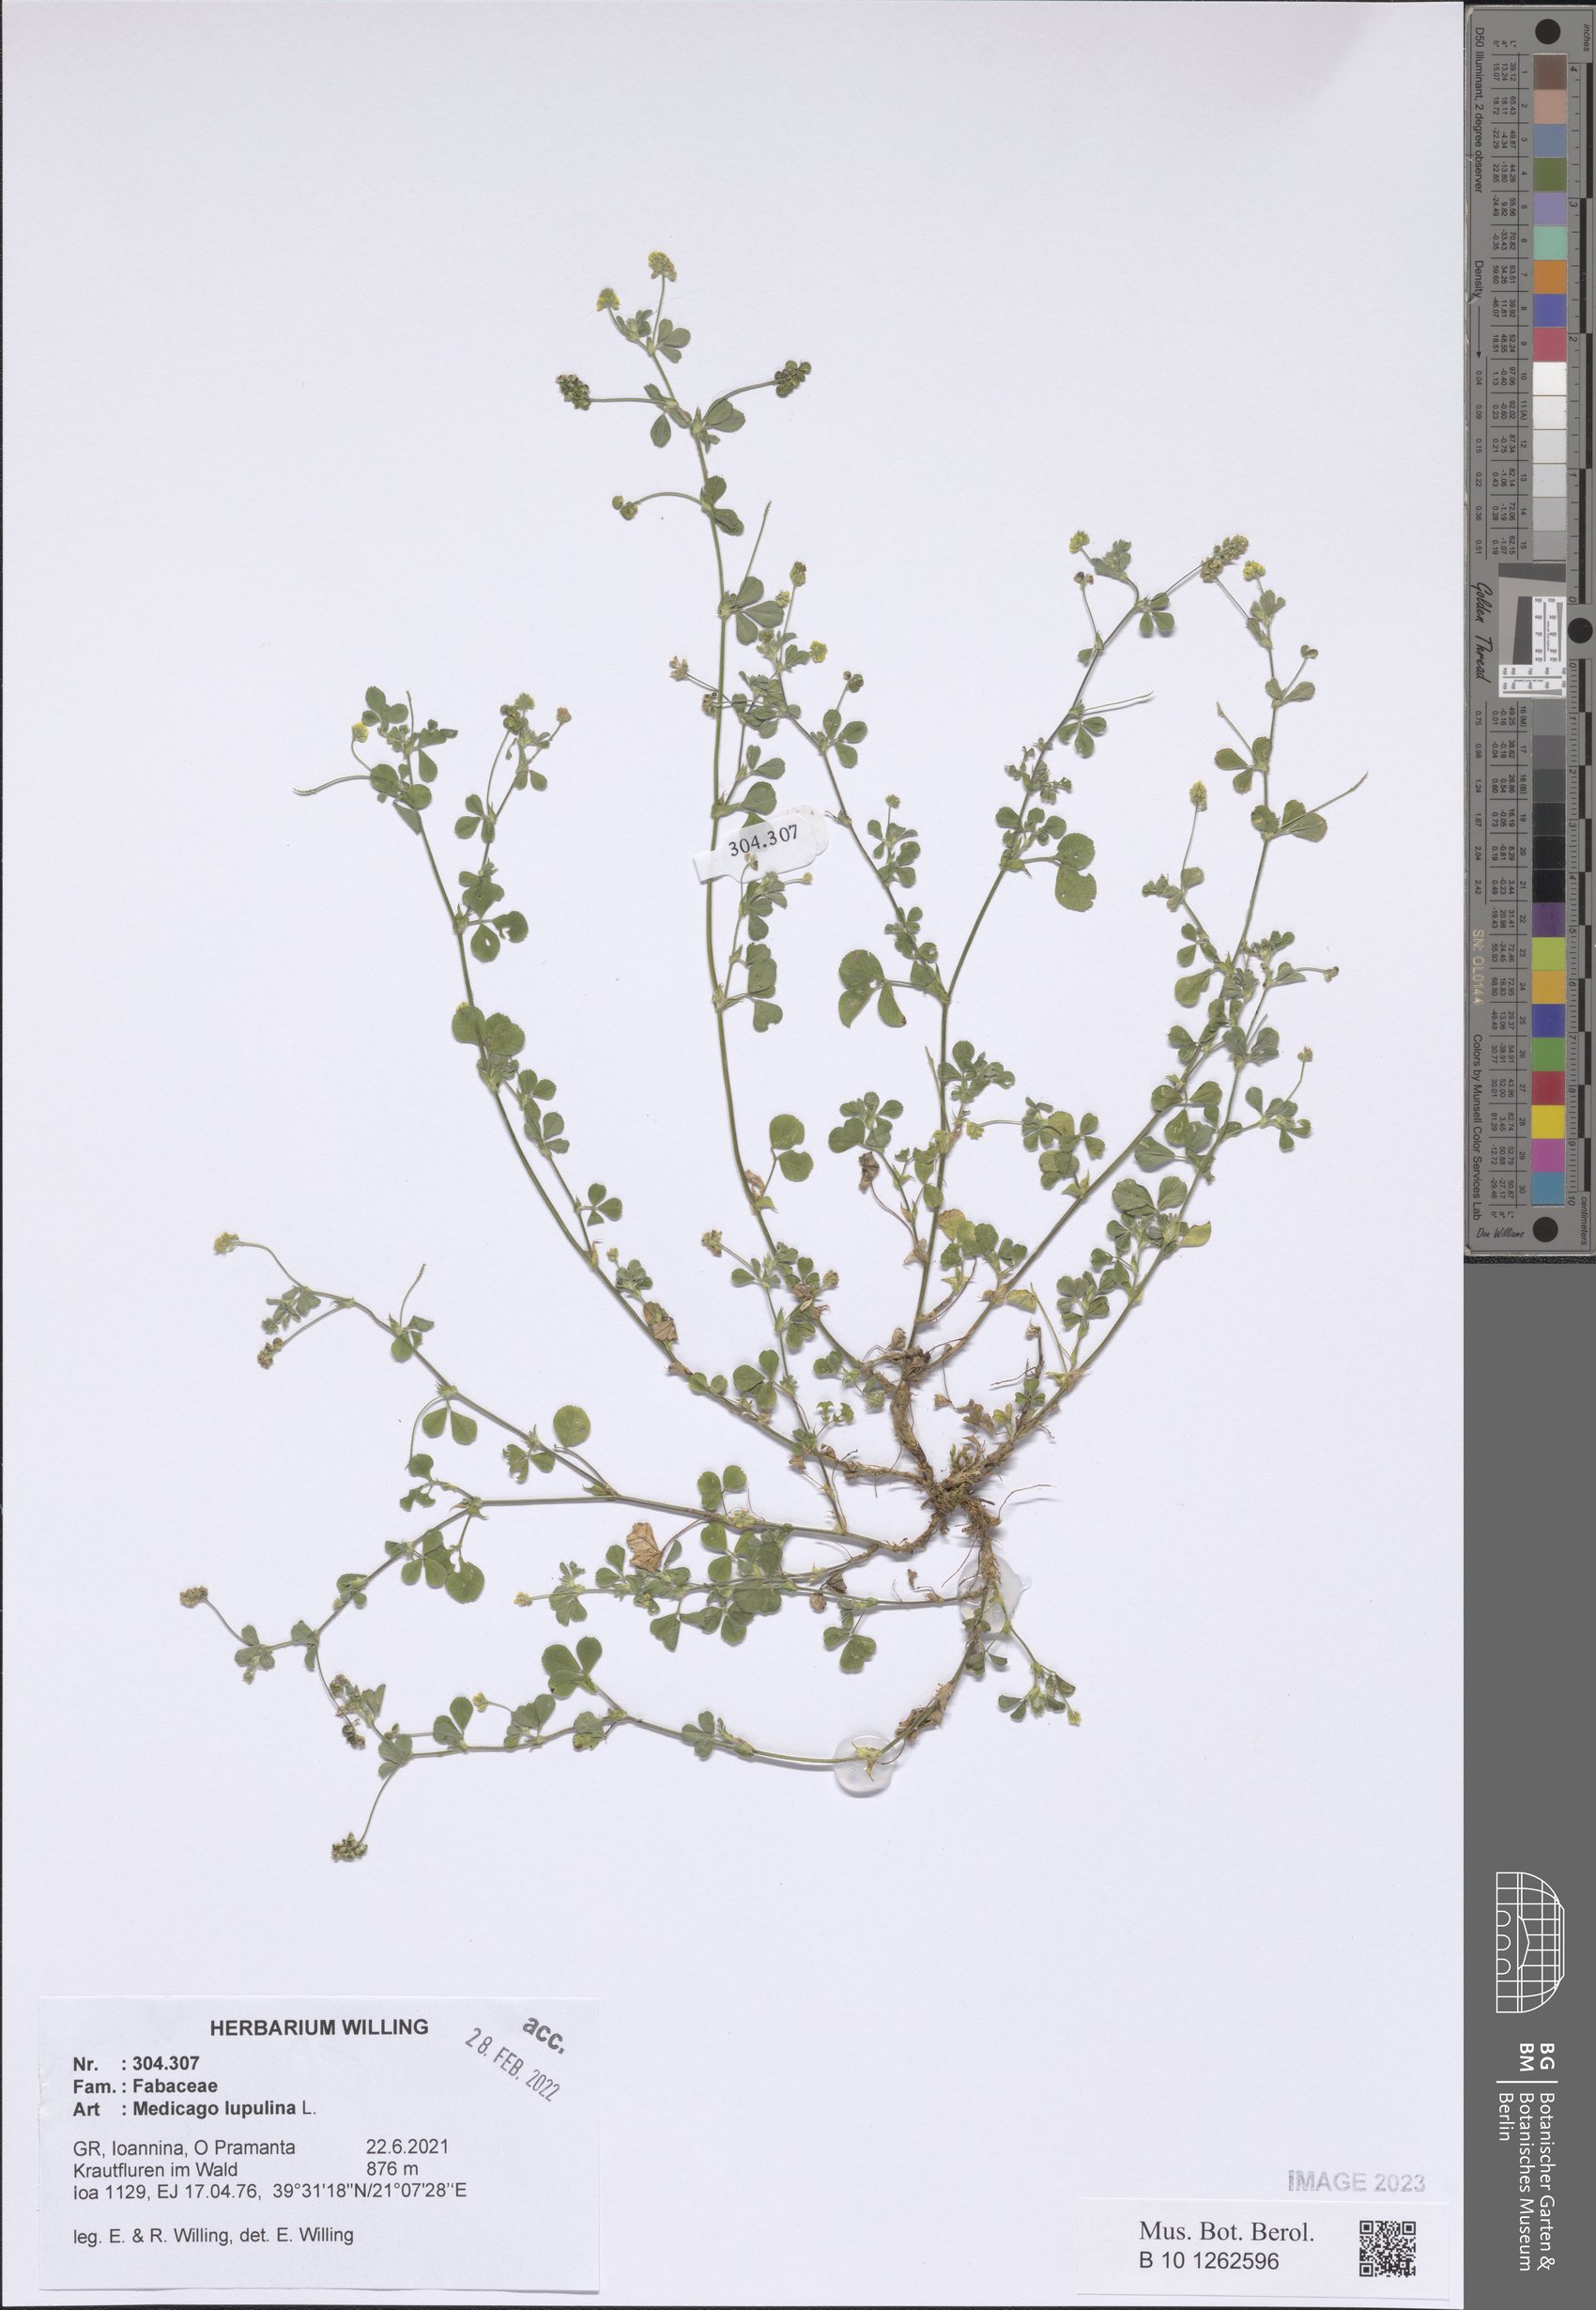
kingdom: Plantae
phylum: Tracheophyta
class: Magnoliopsida
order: Fabales
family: Fabaceae
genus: Medicago
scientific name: Medicago lupulina
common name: Black medick
